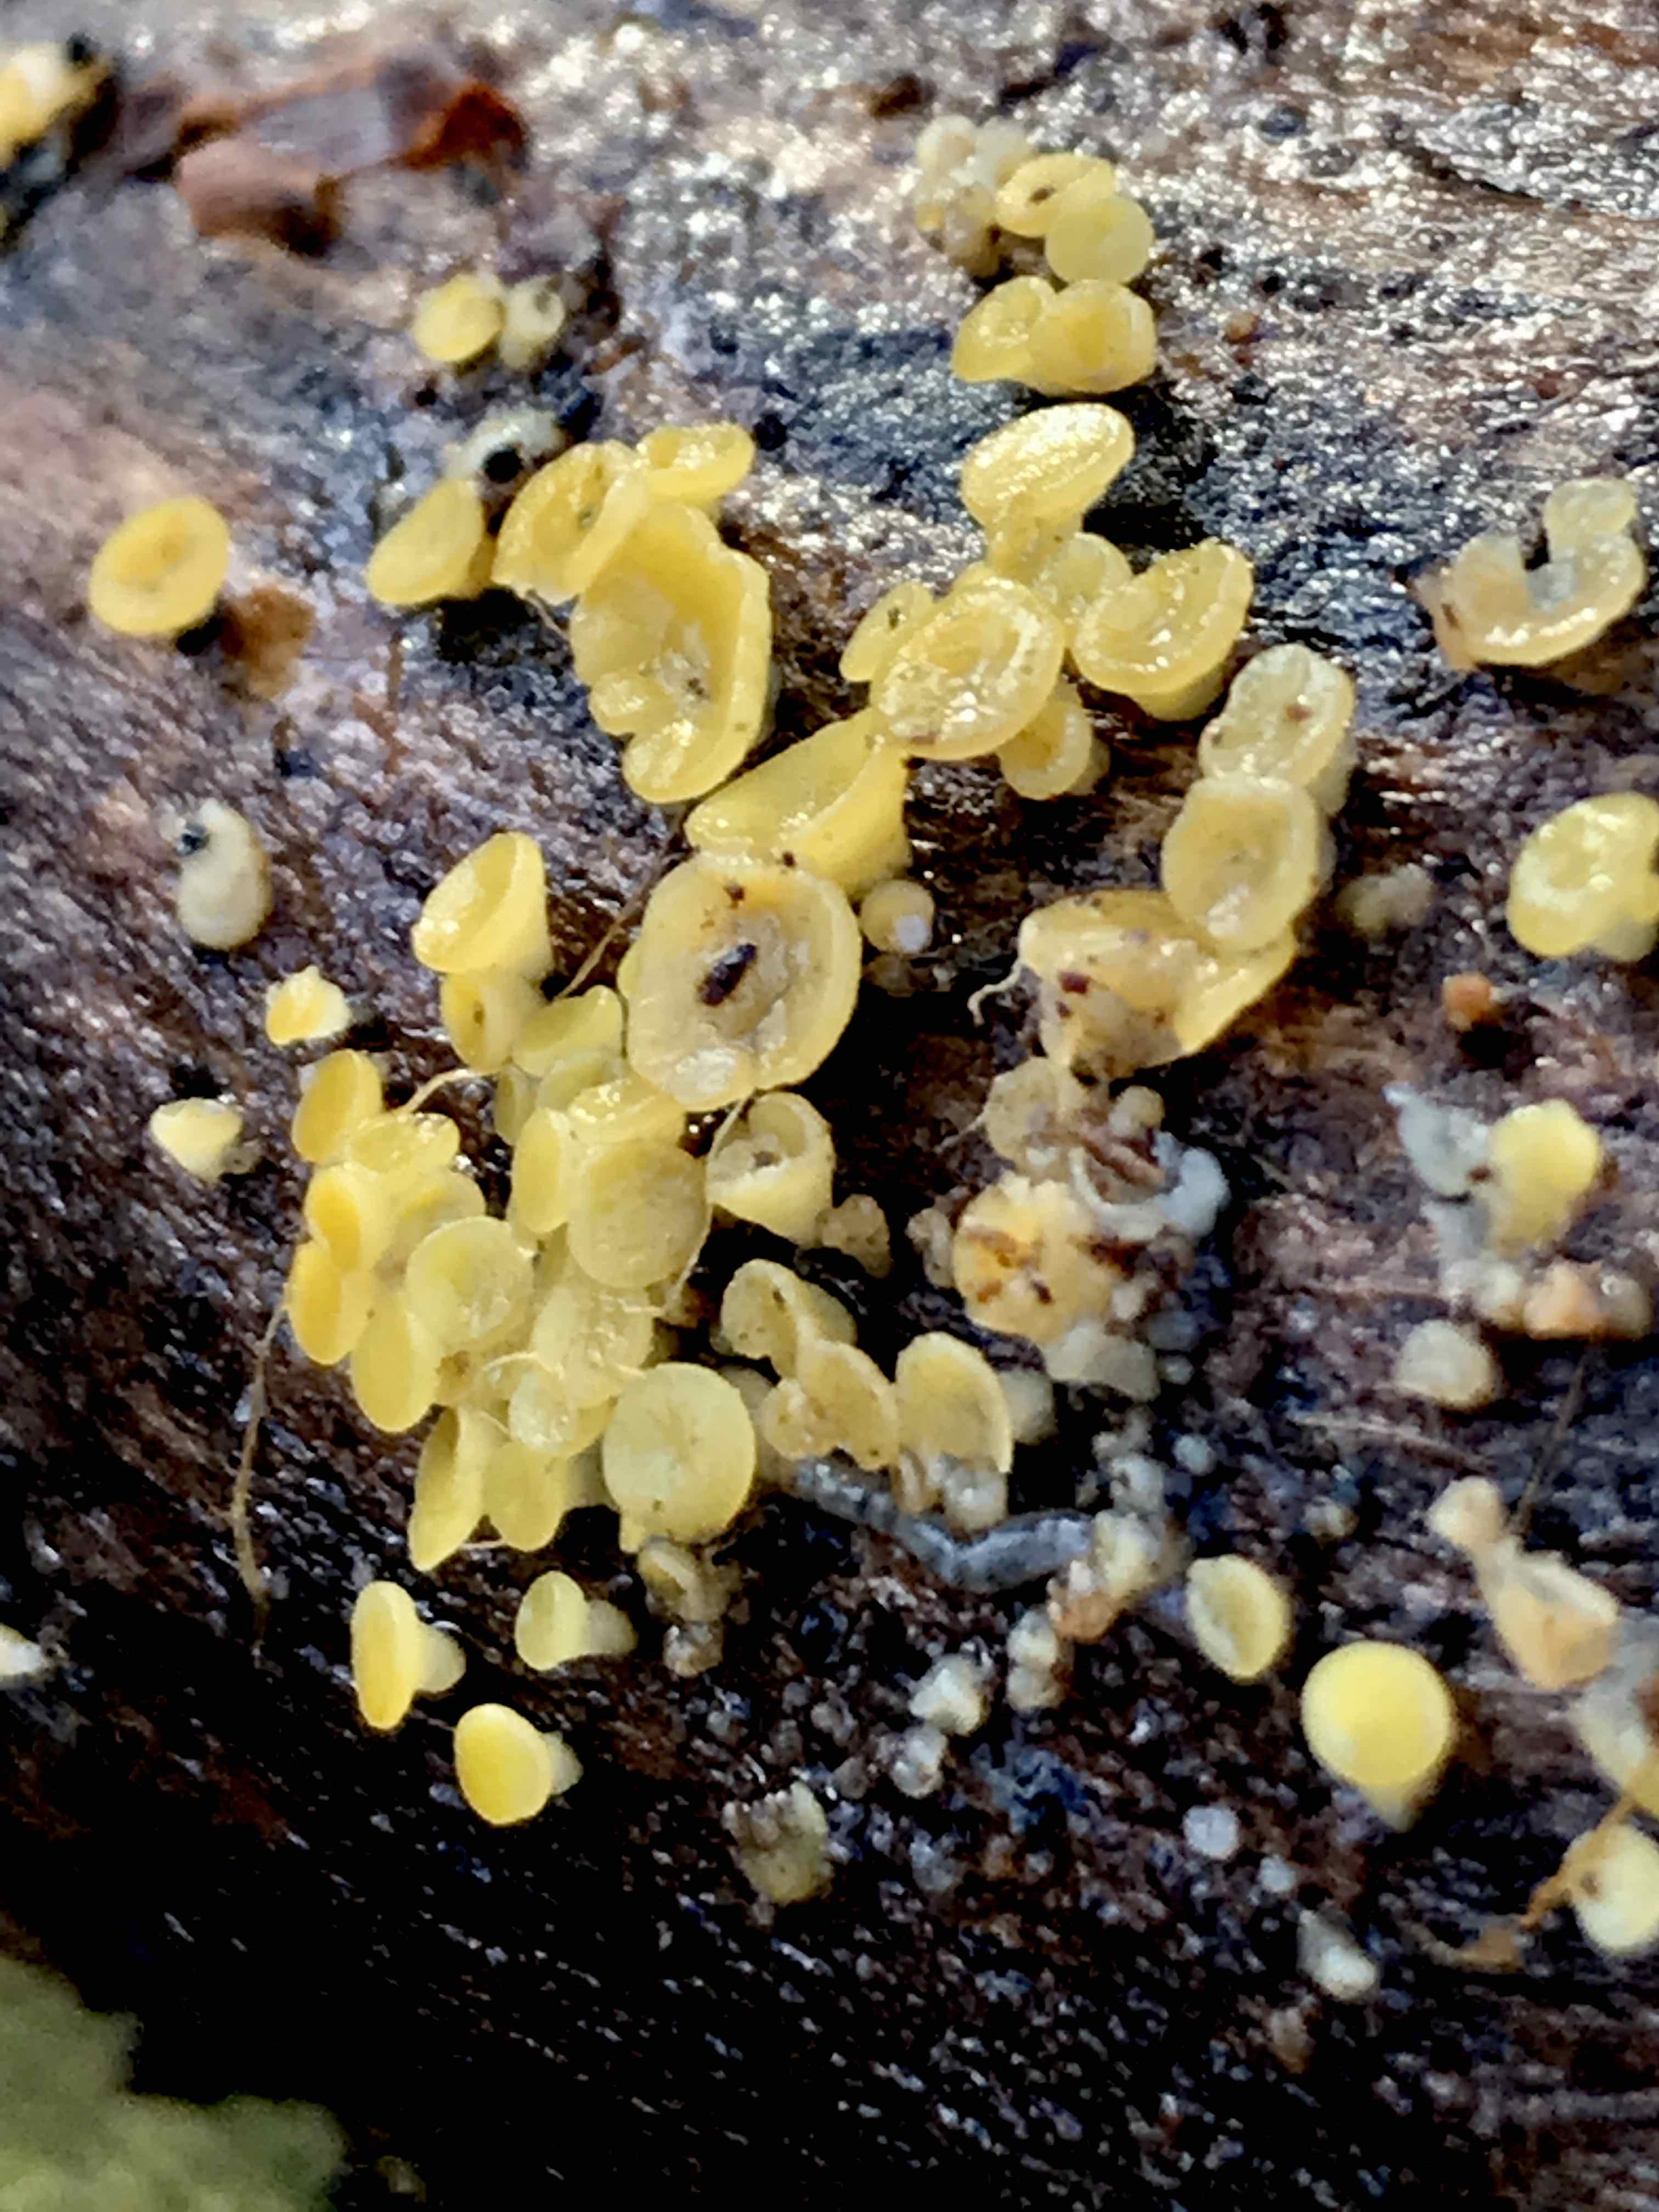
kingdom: Fungi
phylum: Ascomycota
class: Leotiomycetes
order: Helotiales
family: Pezizellaceae
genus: Calycina
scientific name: Calycina citrina
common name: almindelig gulskive
